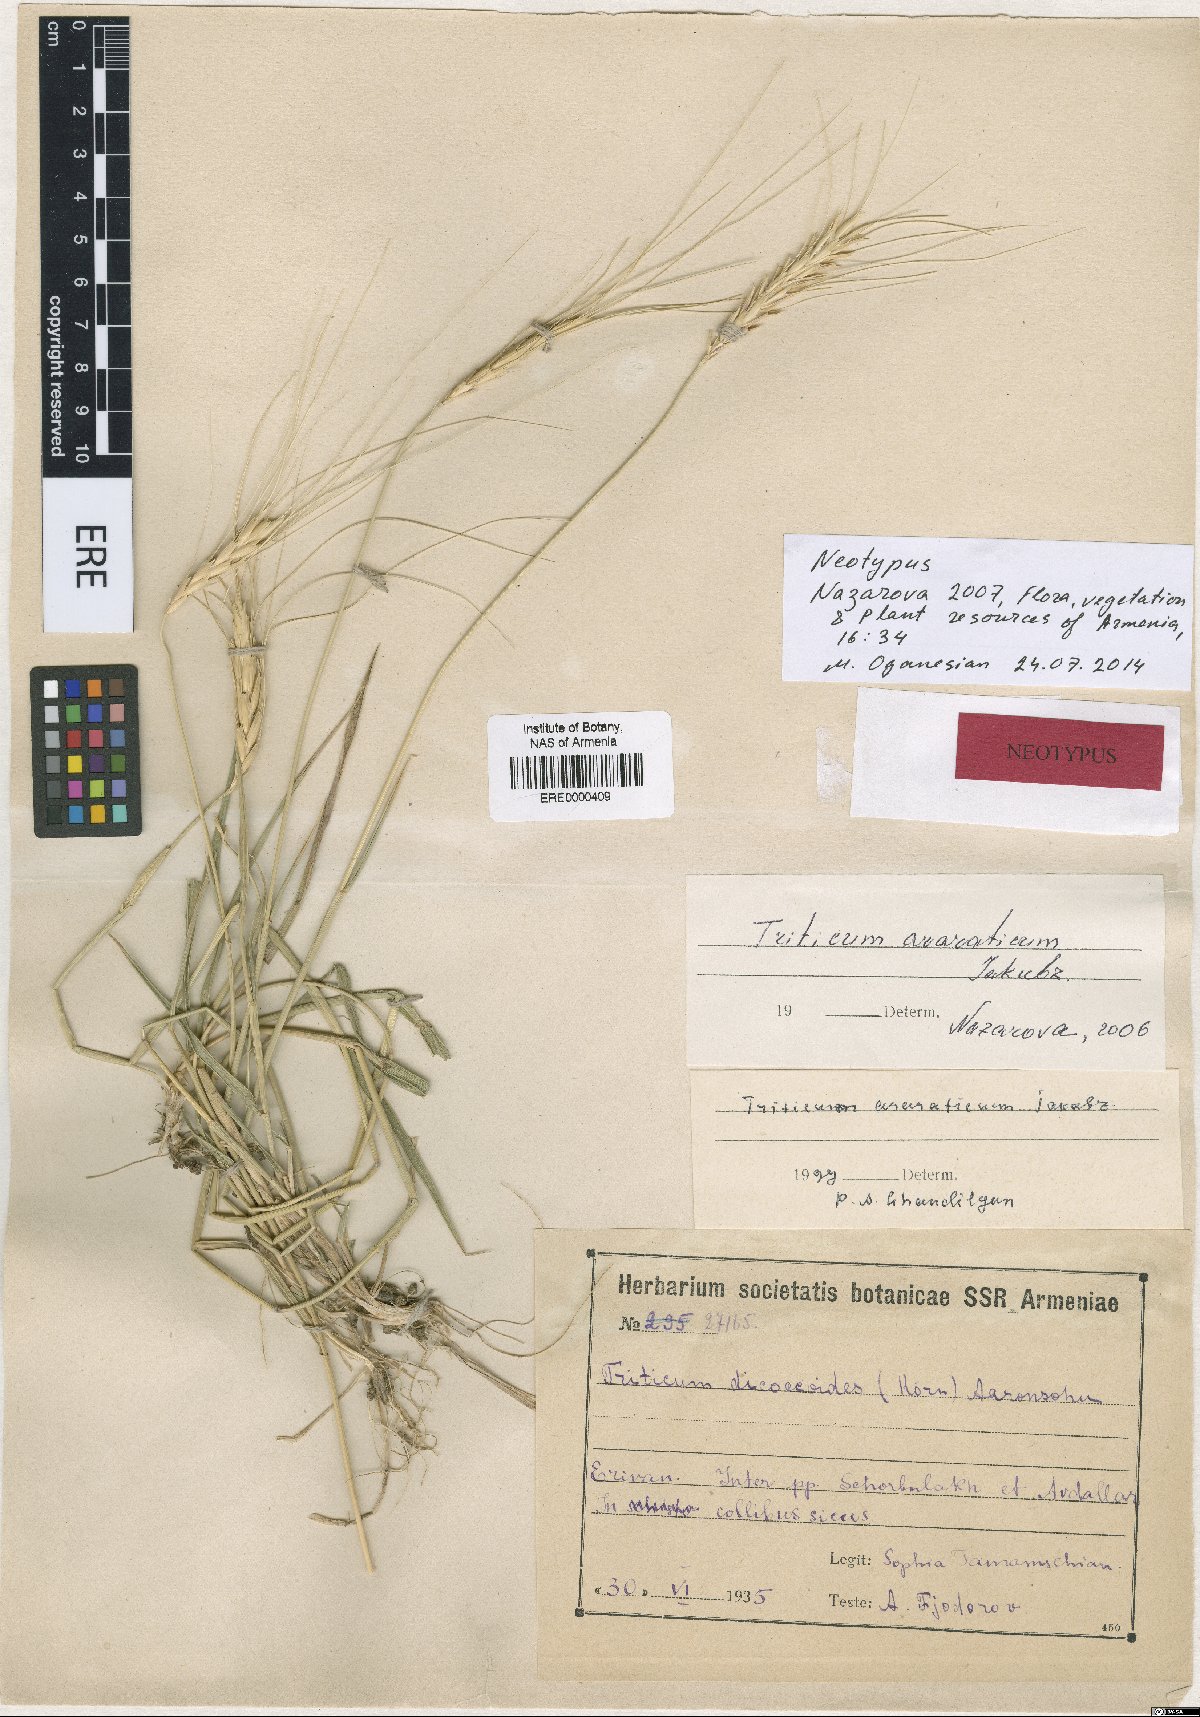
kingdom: Plantae
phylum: Tracheophyta
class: Liliopsida
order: Poales
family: Poaceae
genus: Triticum
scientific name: Triticum timopheevii
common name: Timopheev's wheat
